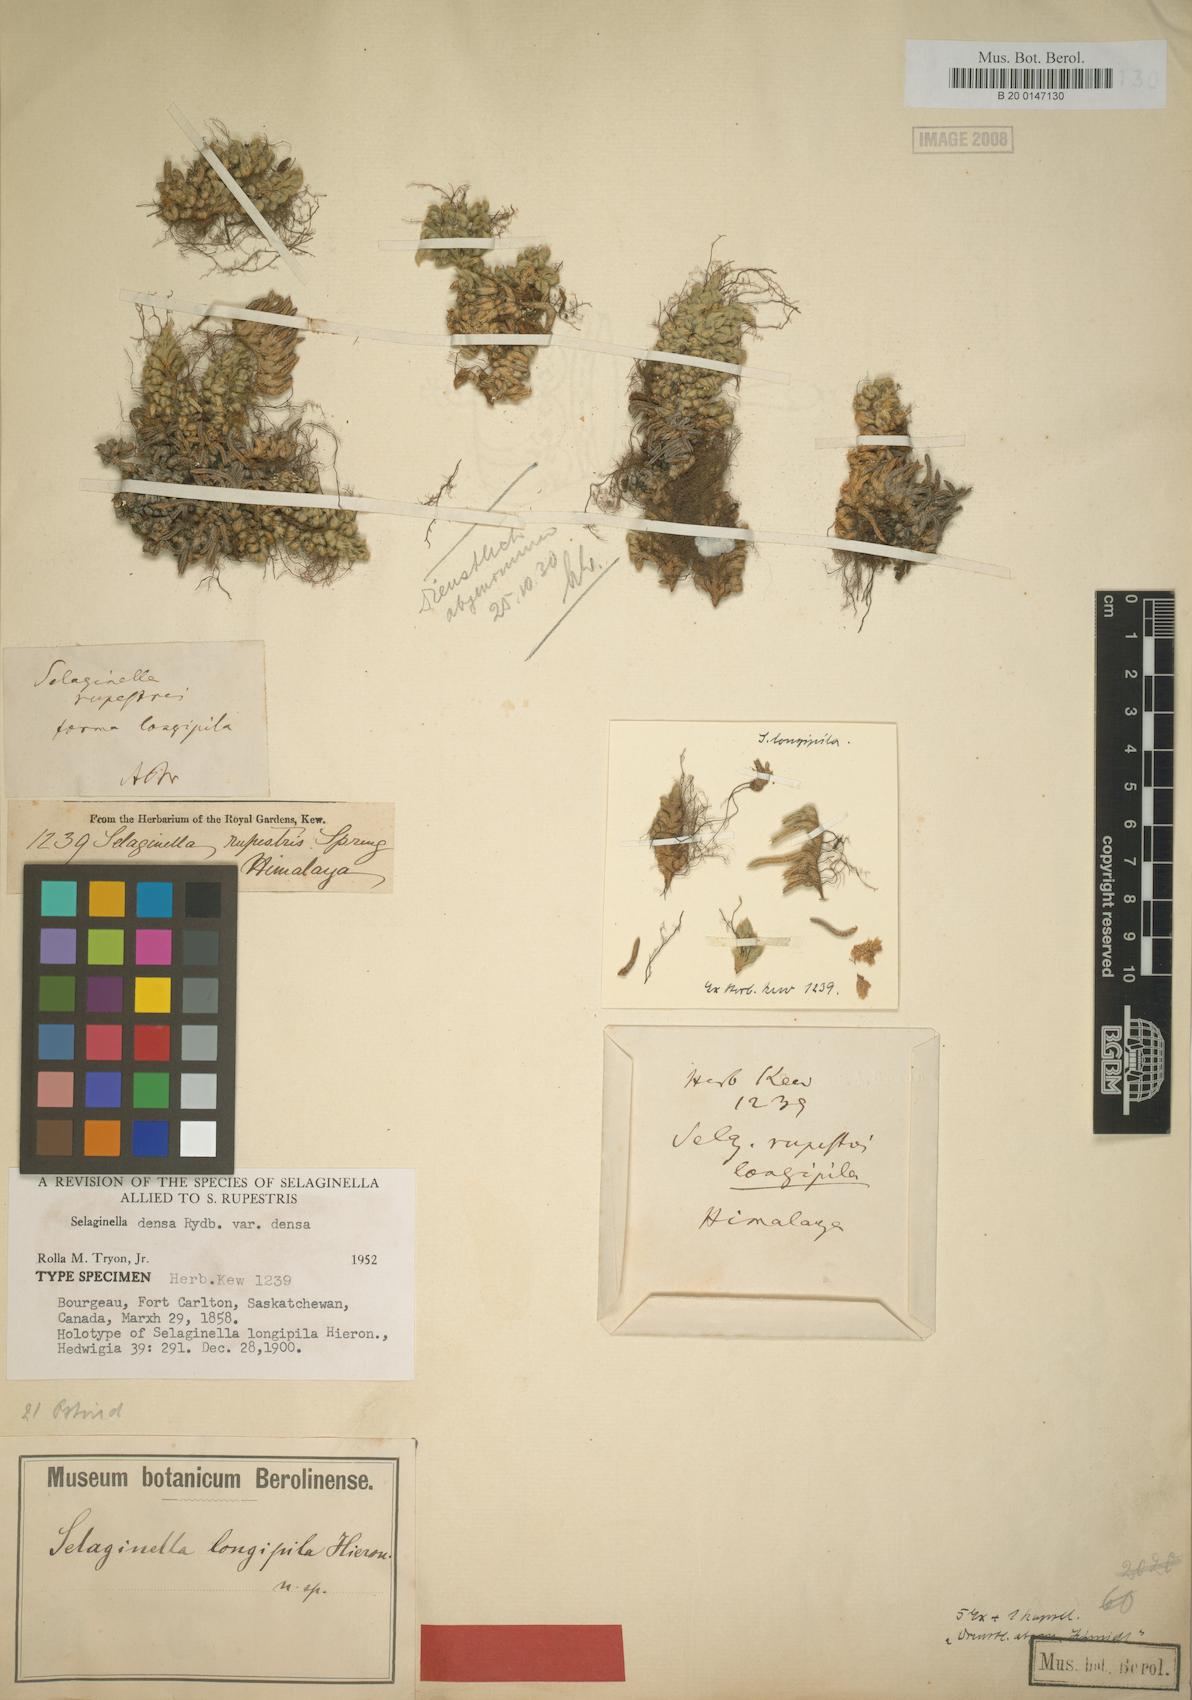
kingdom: Plantae
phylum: Tracheophyta
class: Lycopodiopsida
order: Selaginellales
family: Selaginellaceae
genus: Selaginella
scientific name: Selaginella densa
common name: Mountain spike-moss
